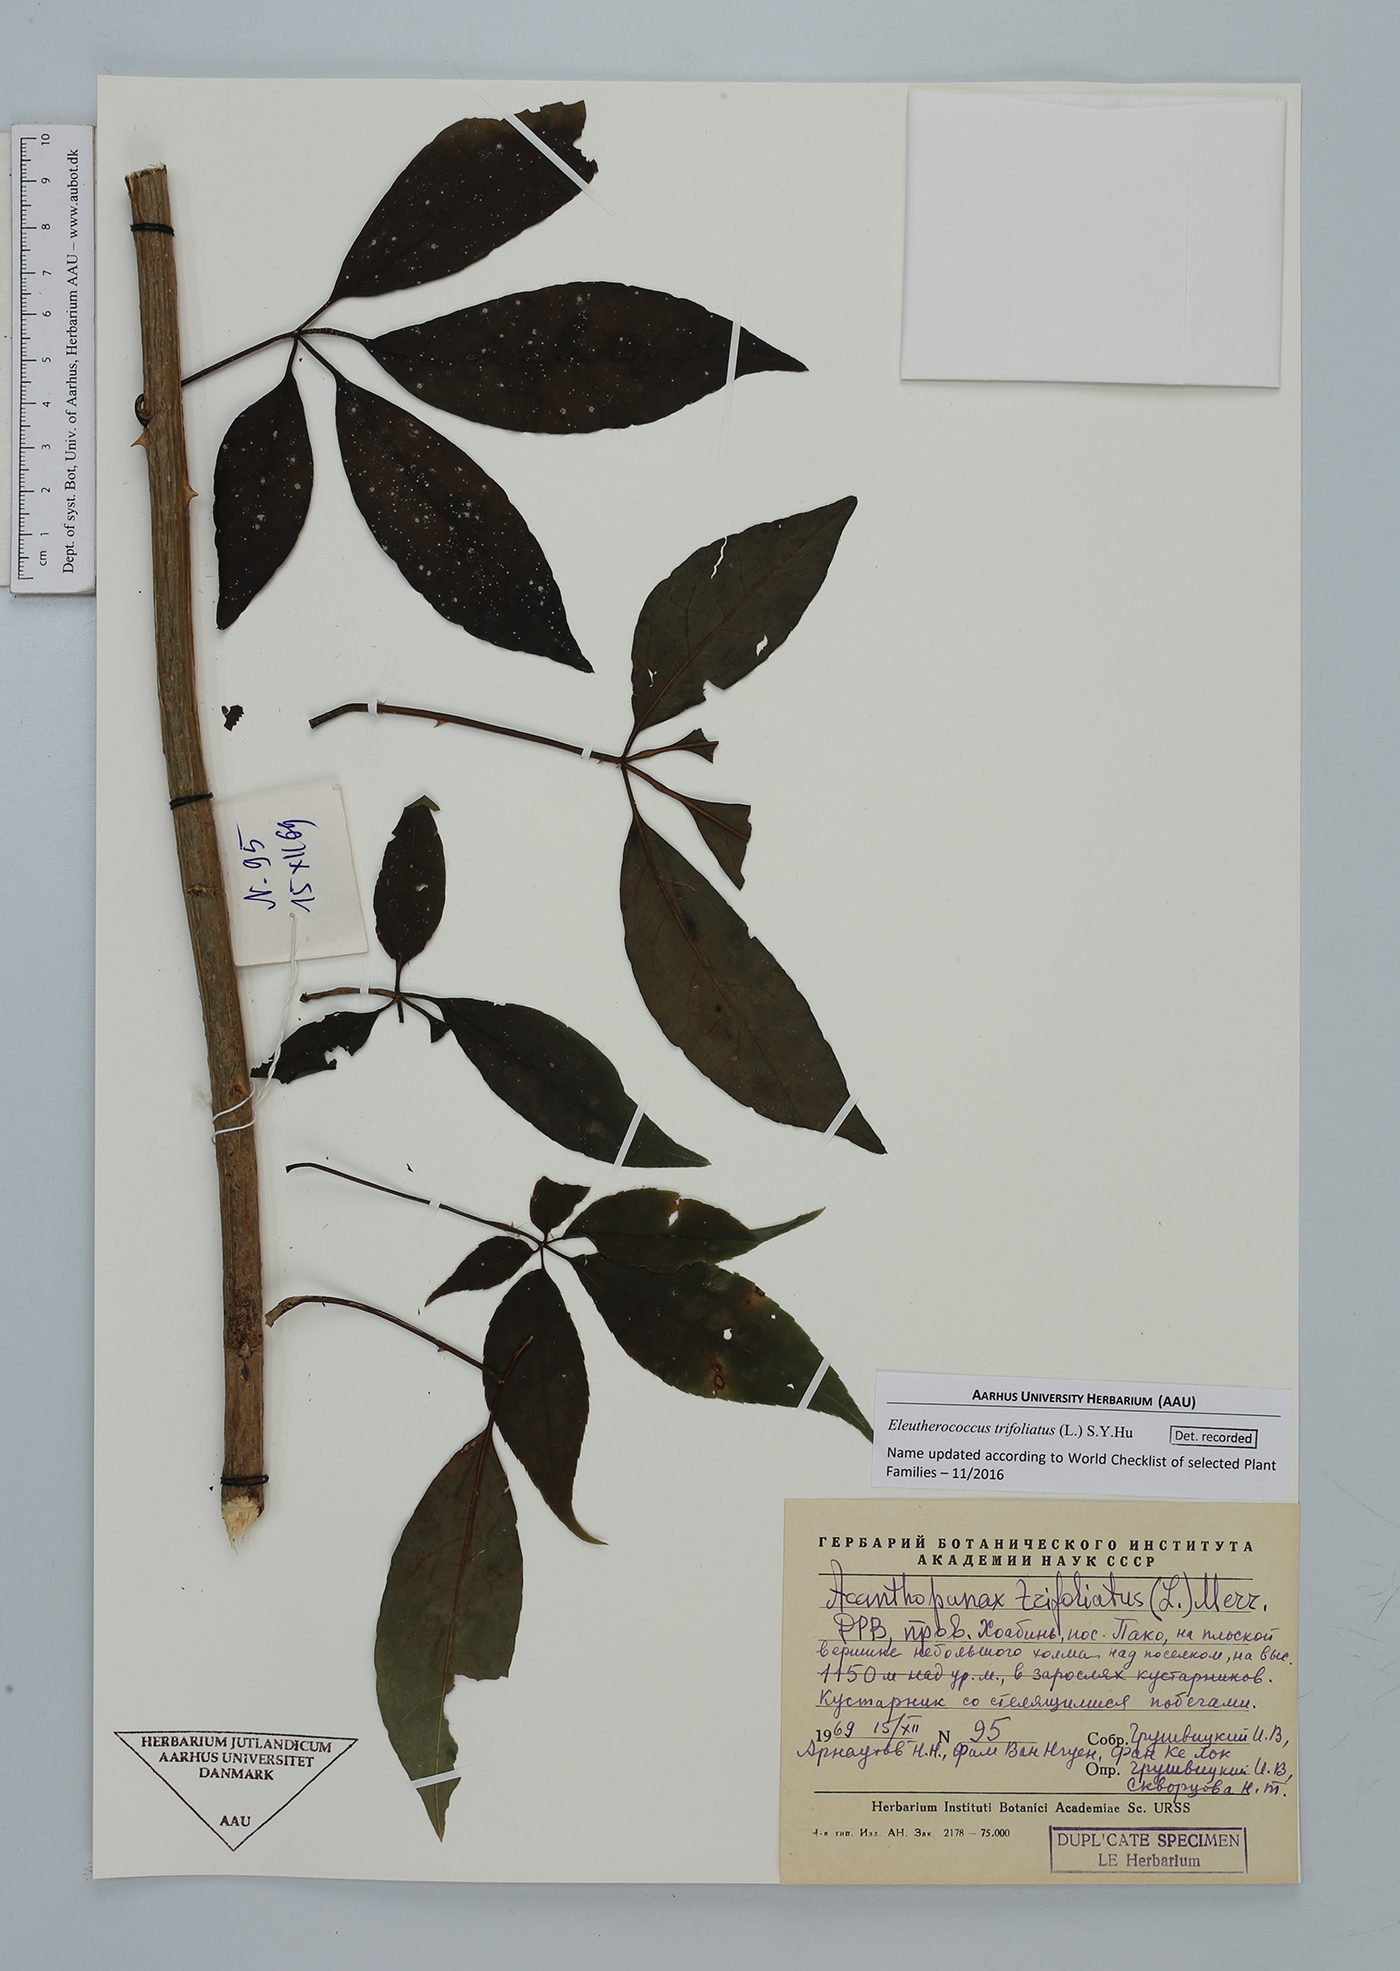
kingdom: Plantae
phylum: Tracheophyta
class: Magnoliopsida
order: Apiales
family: Araliaceae
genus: Eleutherococcus
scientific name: Eleutherococcus trifoliatus
